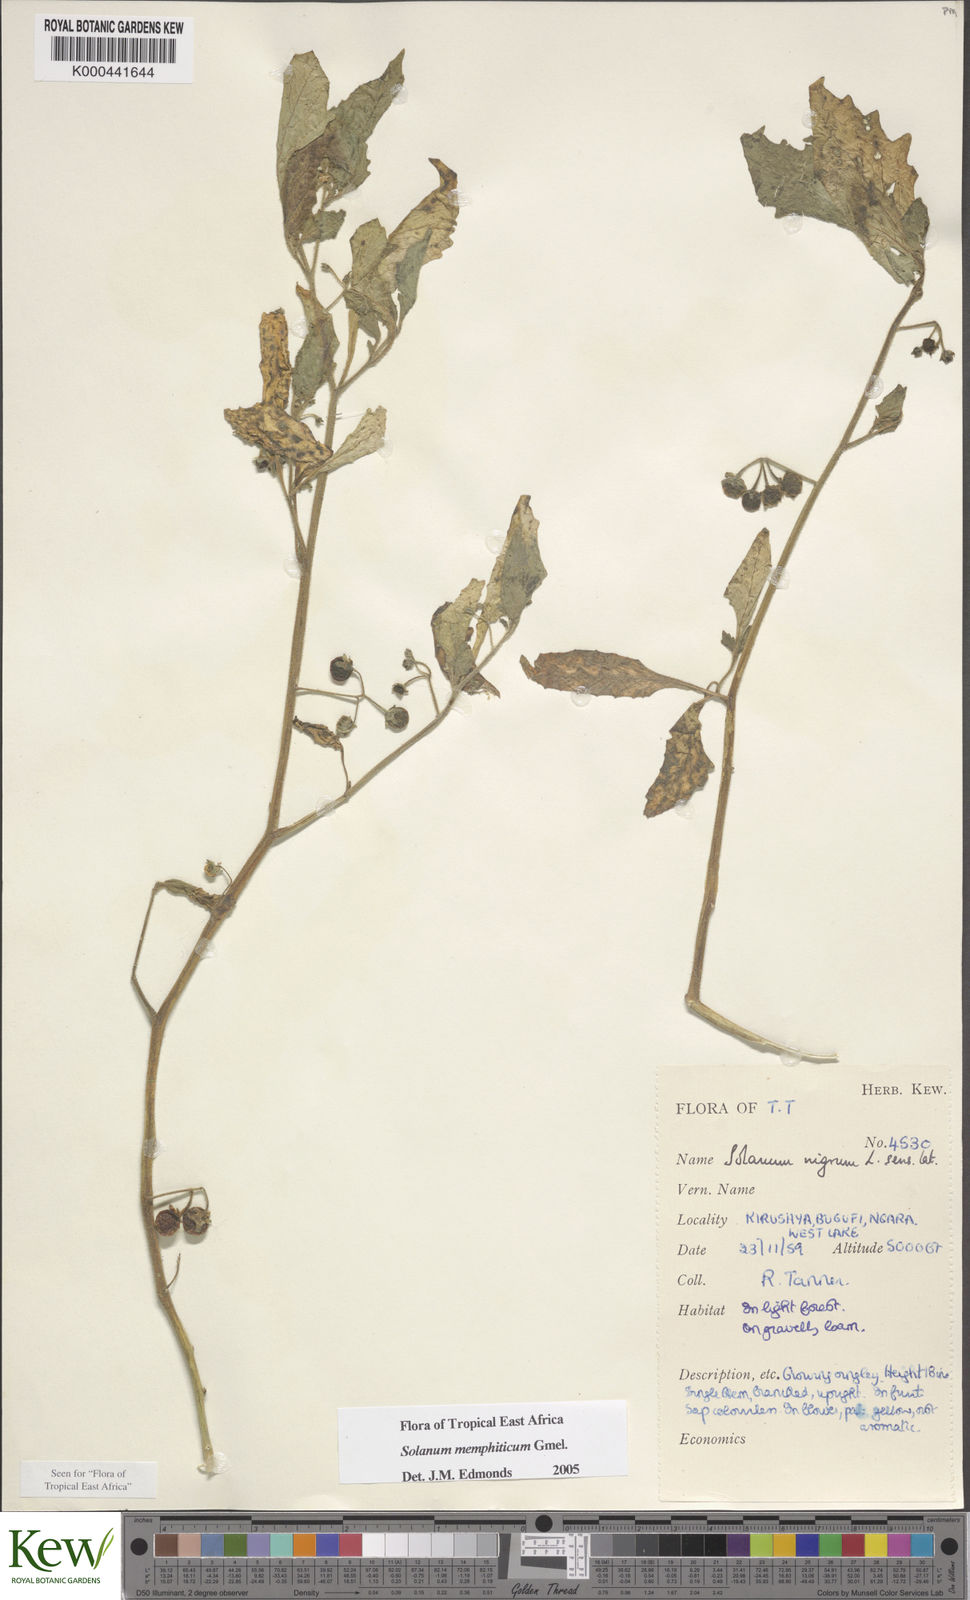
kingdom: Plantae
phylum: Tracheophyta
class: Magnoliopsida
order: Solanales
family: Solanaceae
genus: Solanum
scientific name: Solanum memphiticum
